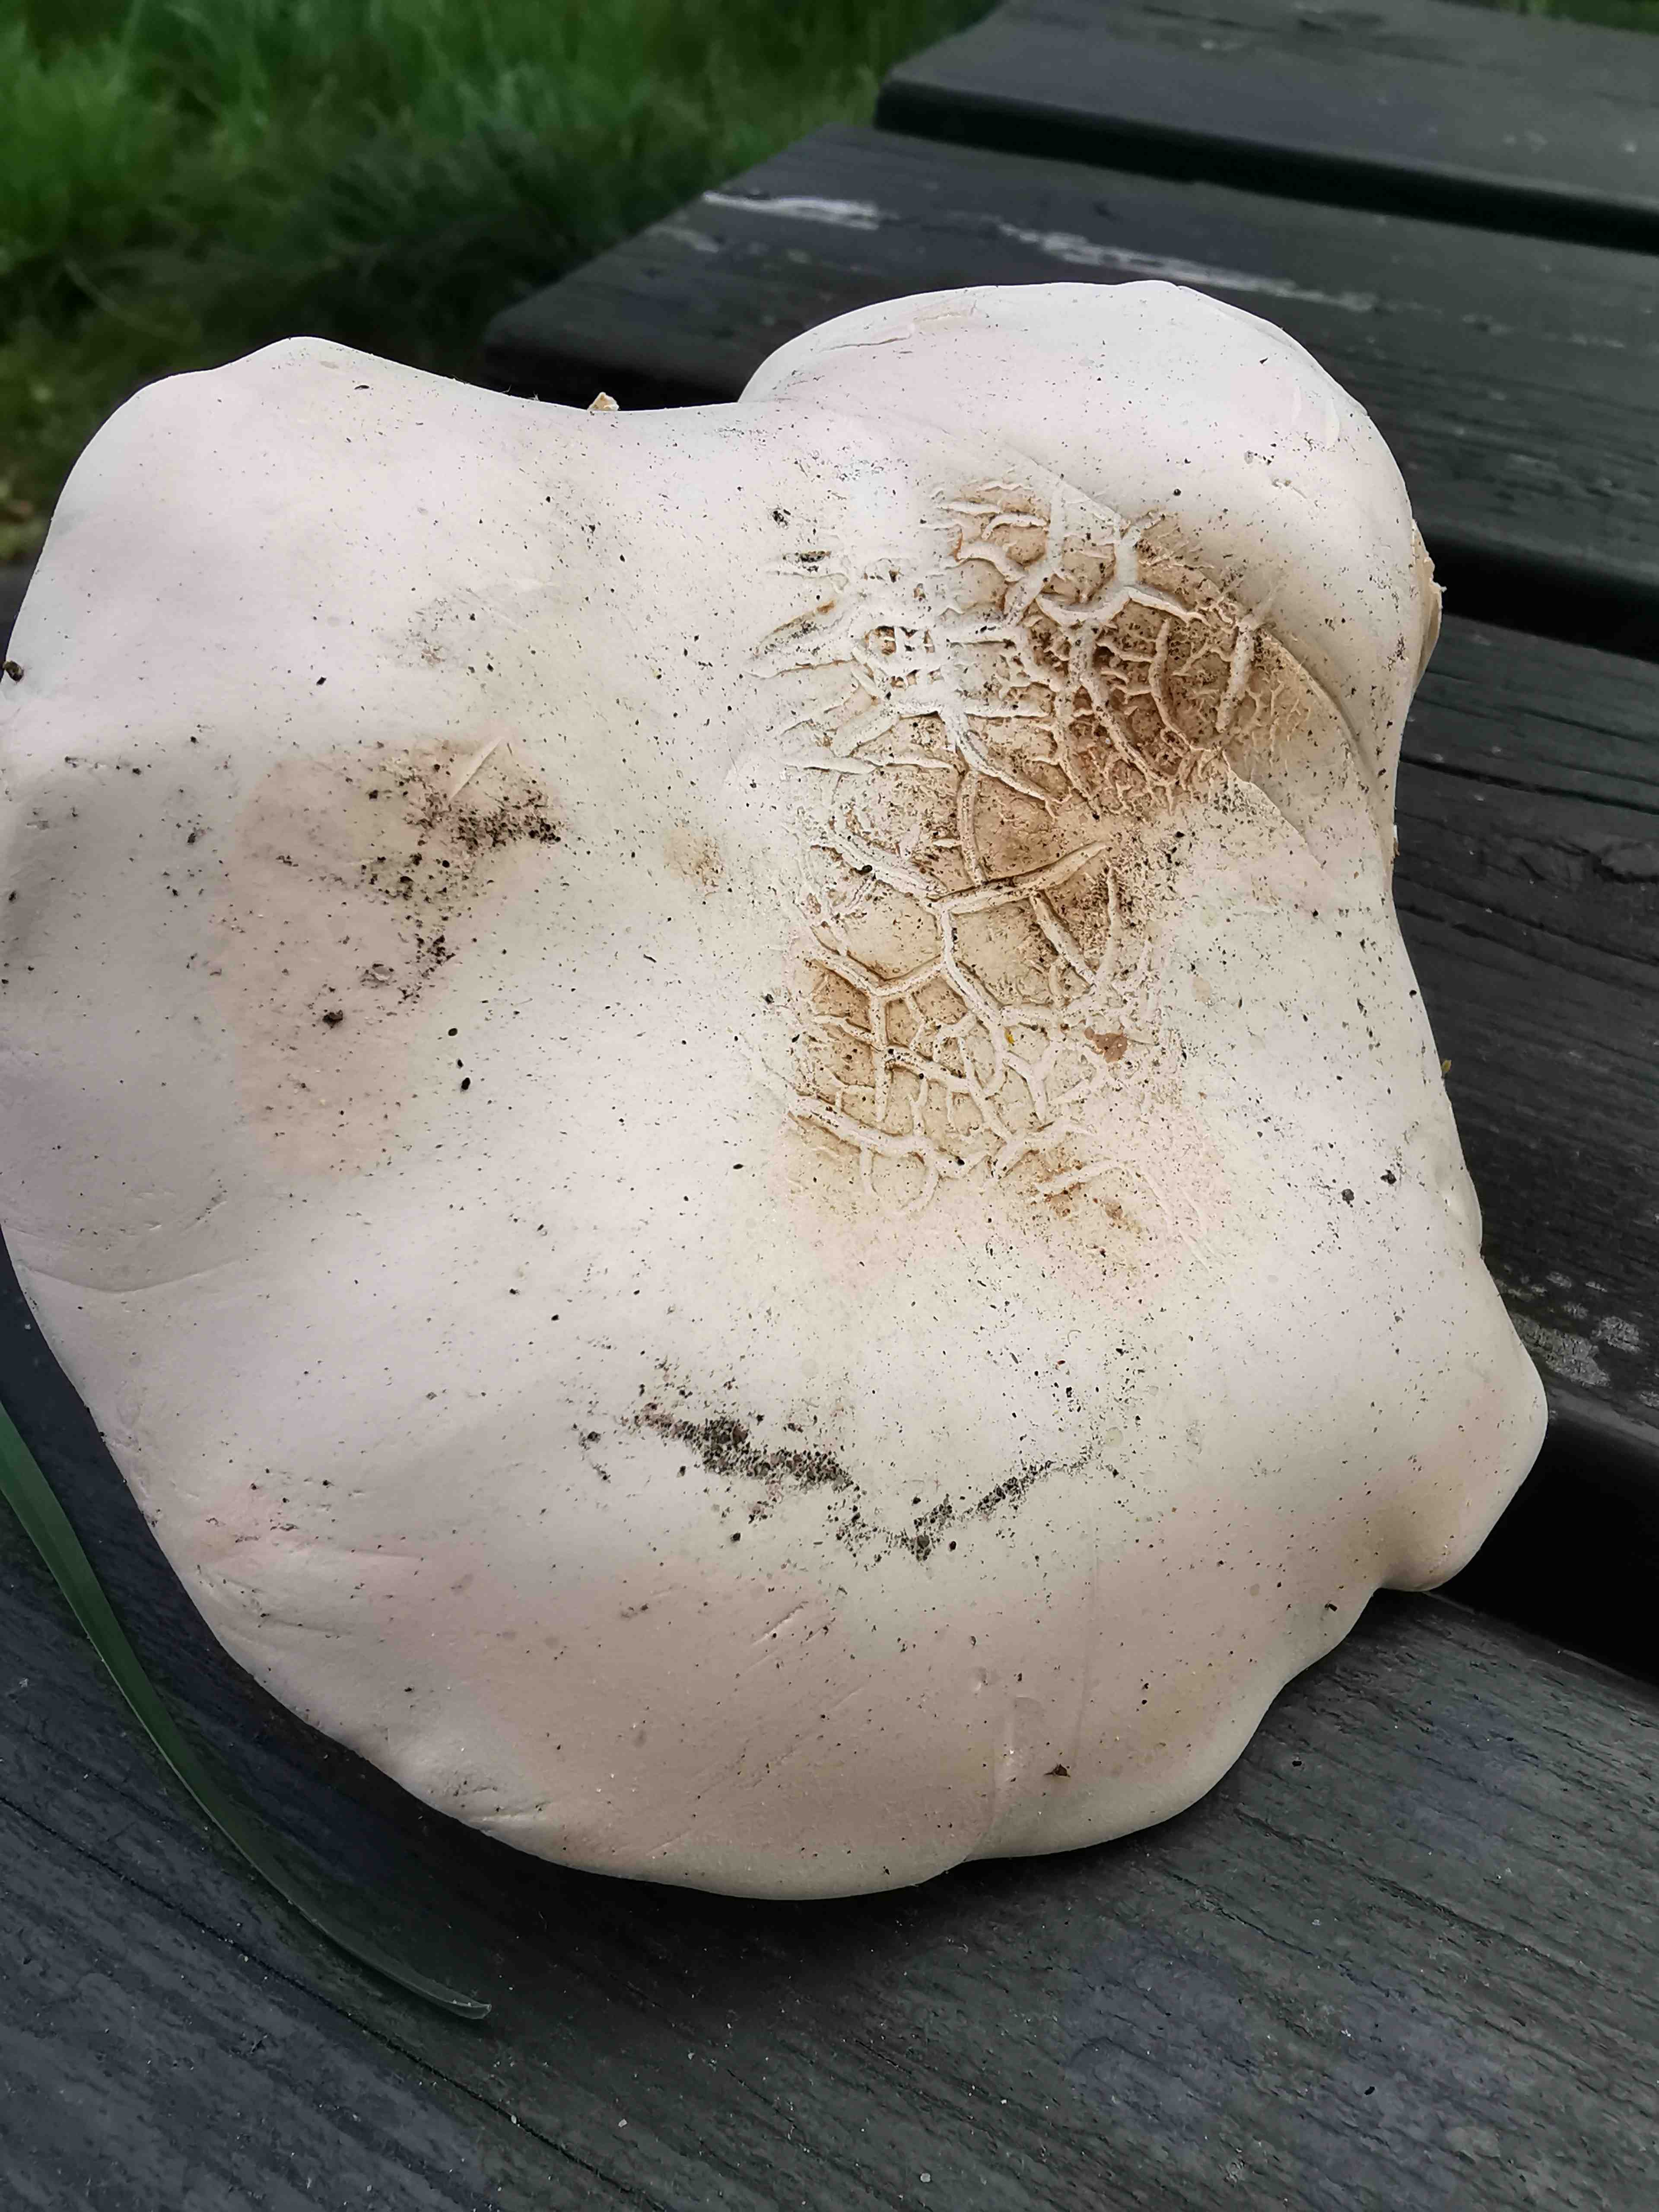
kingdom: Fungi
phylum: Basidiomycota
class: Agaricomycetes
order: Agaricales
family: Lyophyllaceae
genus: Calocybe
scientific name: Calocybe gambosa
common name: vårmusseron
